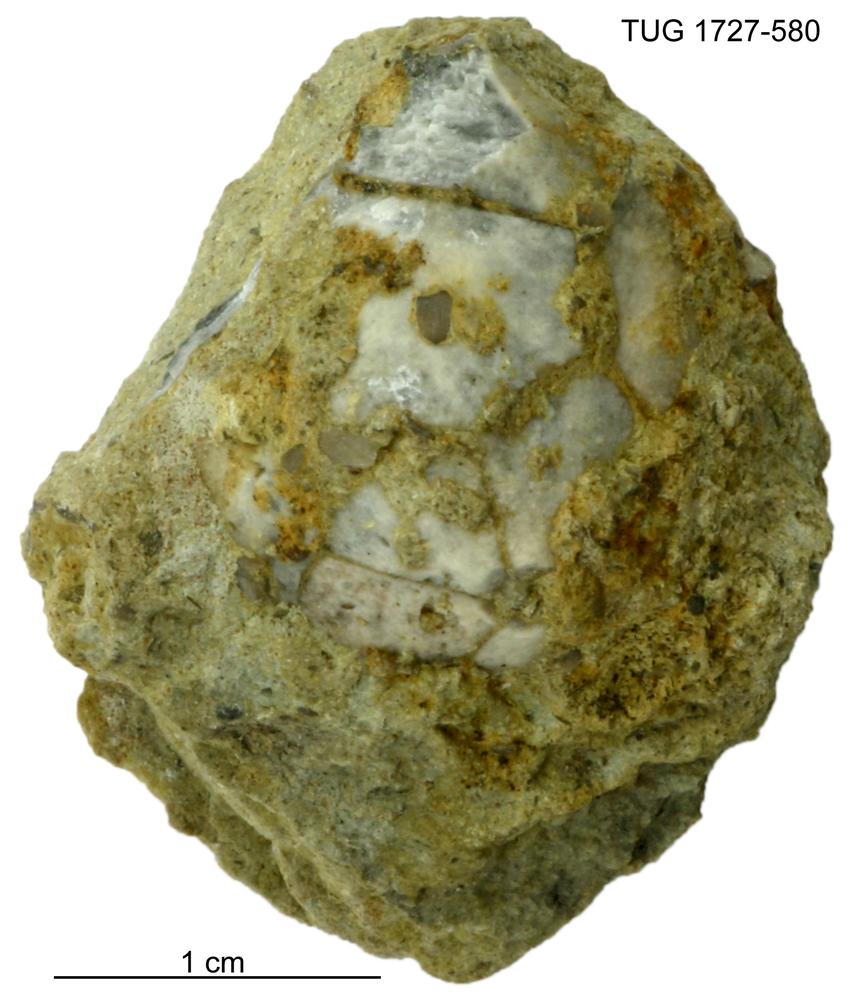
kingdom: Animalia
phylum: Echinodermata
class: Crinoidea
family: Hybocrinidae
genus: Hoplocrinus
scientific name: Hoplocrinus
